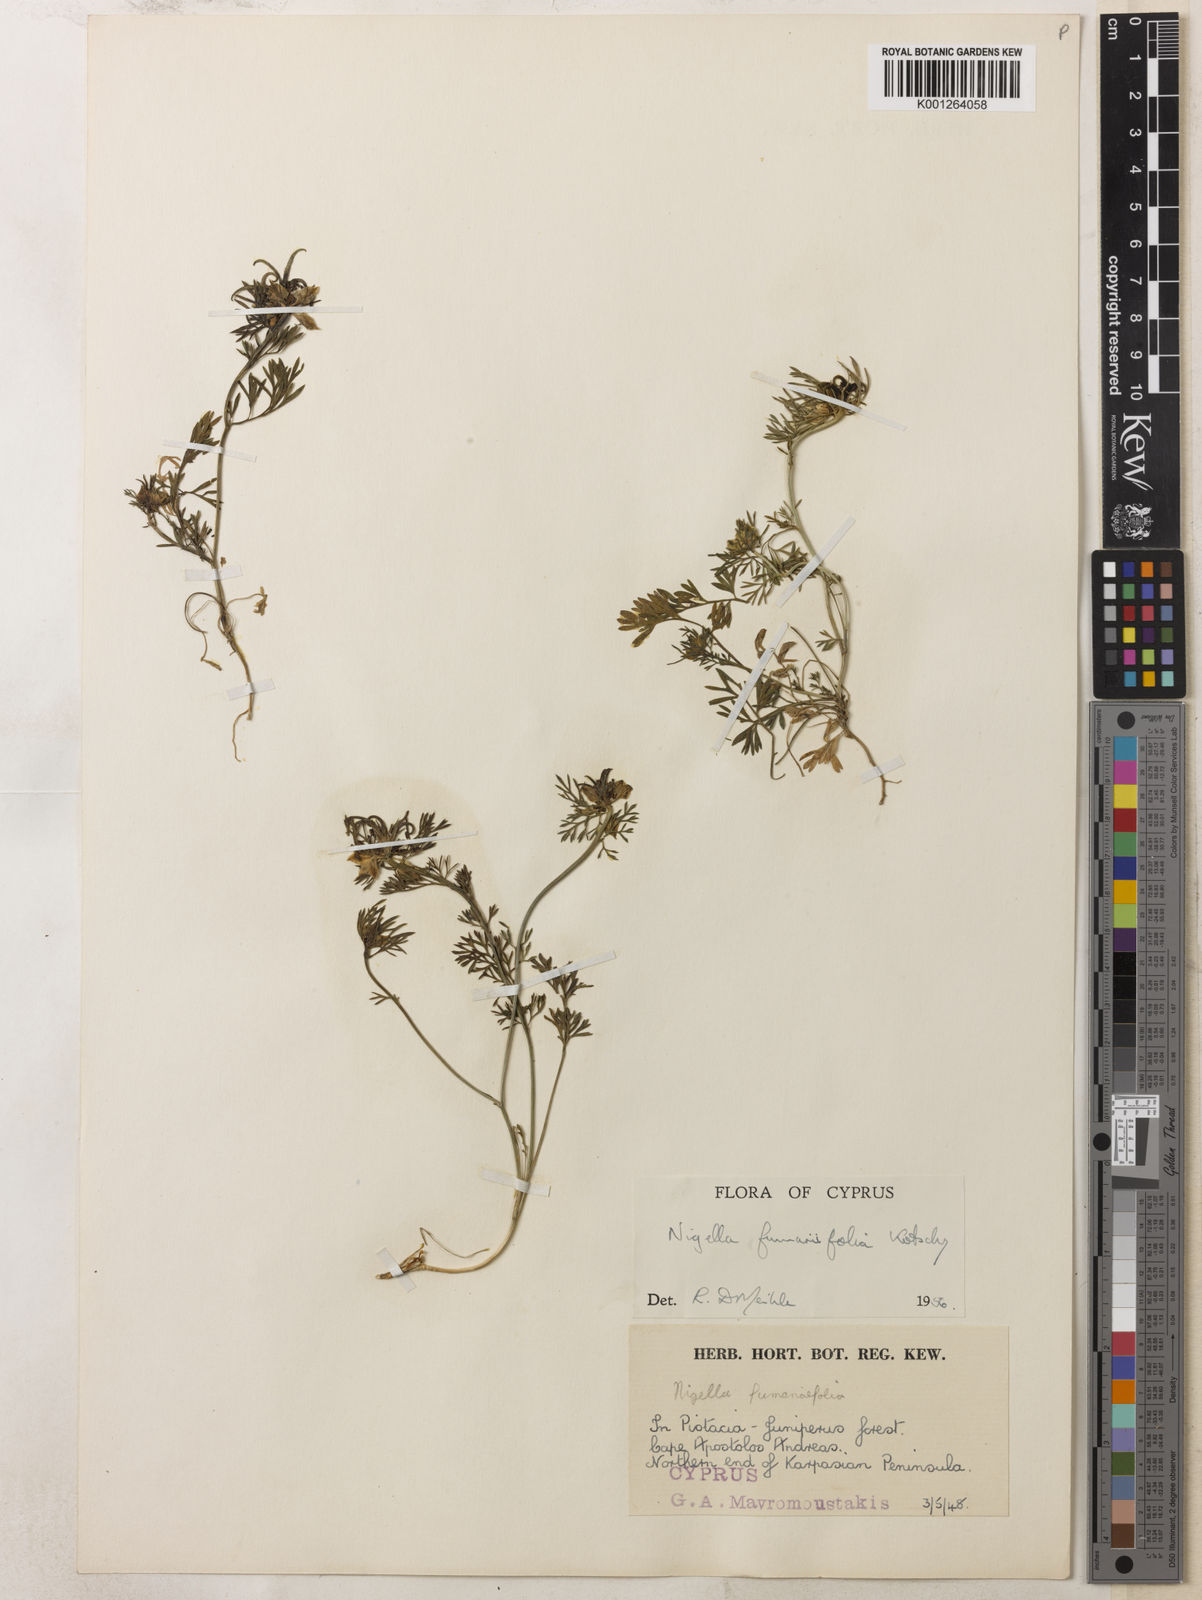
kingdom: Plantae
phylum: Tracheophyta
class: Magnoliopsida
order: Ranunculales
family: Ranunculaceae
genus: Nigella
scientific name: Nigella
